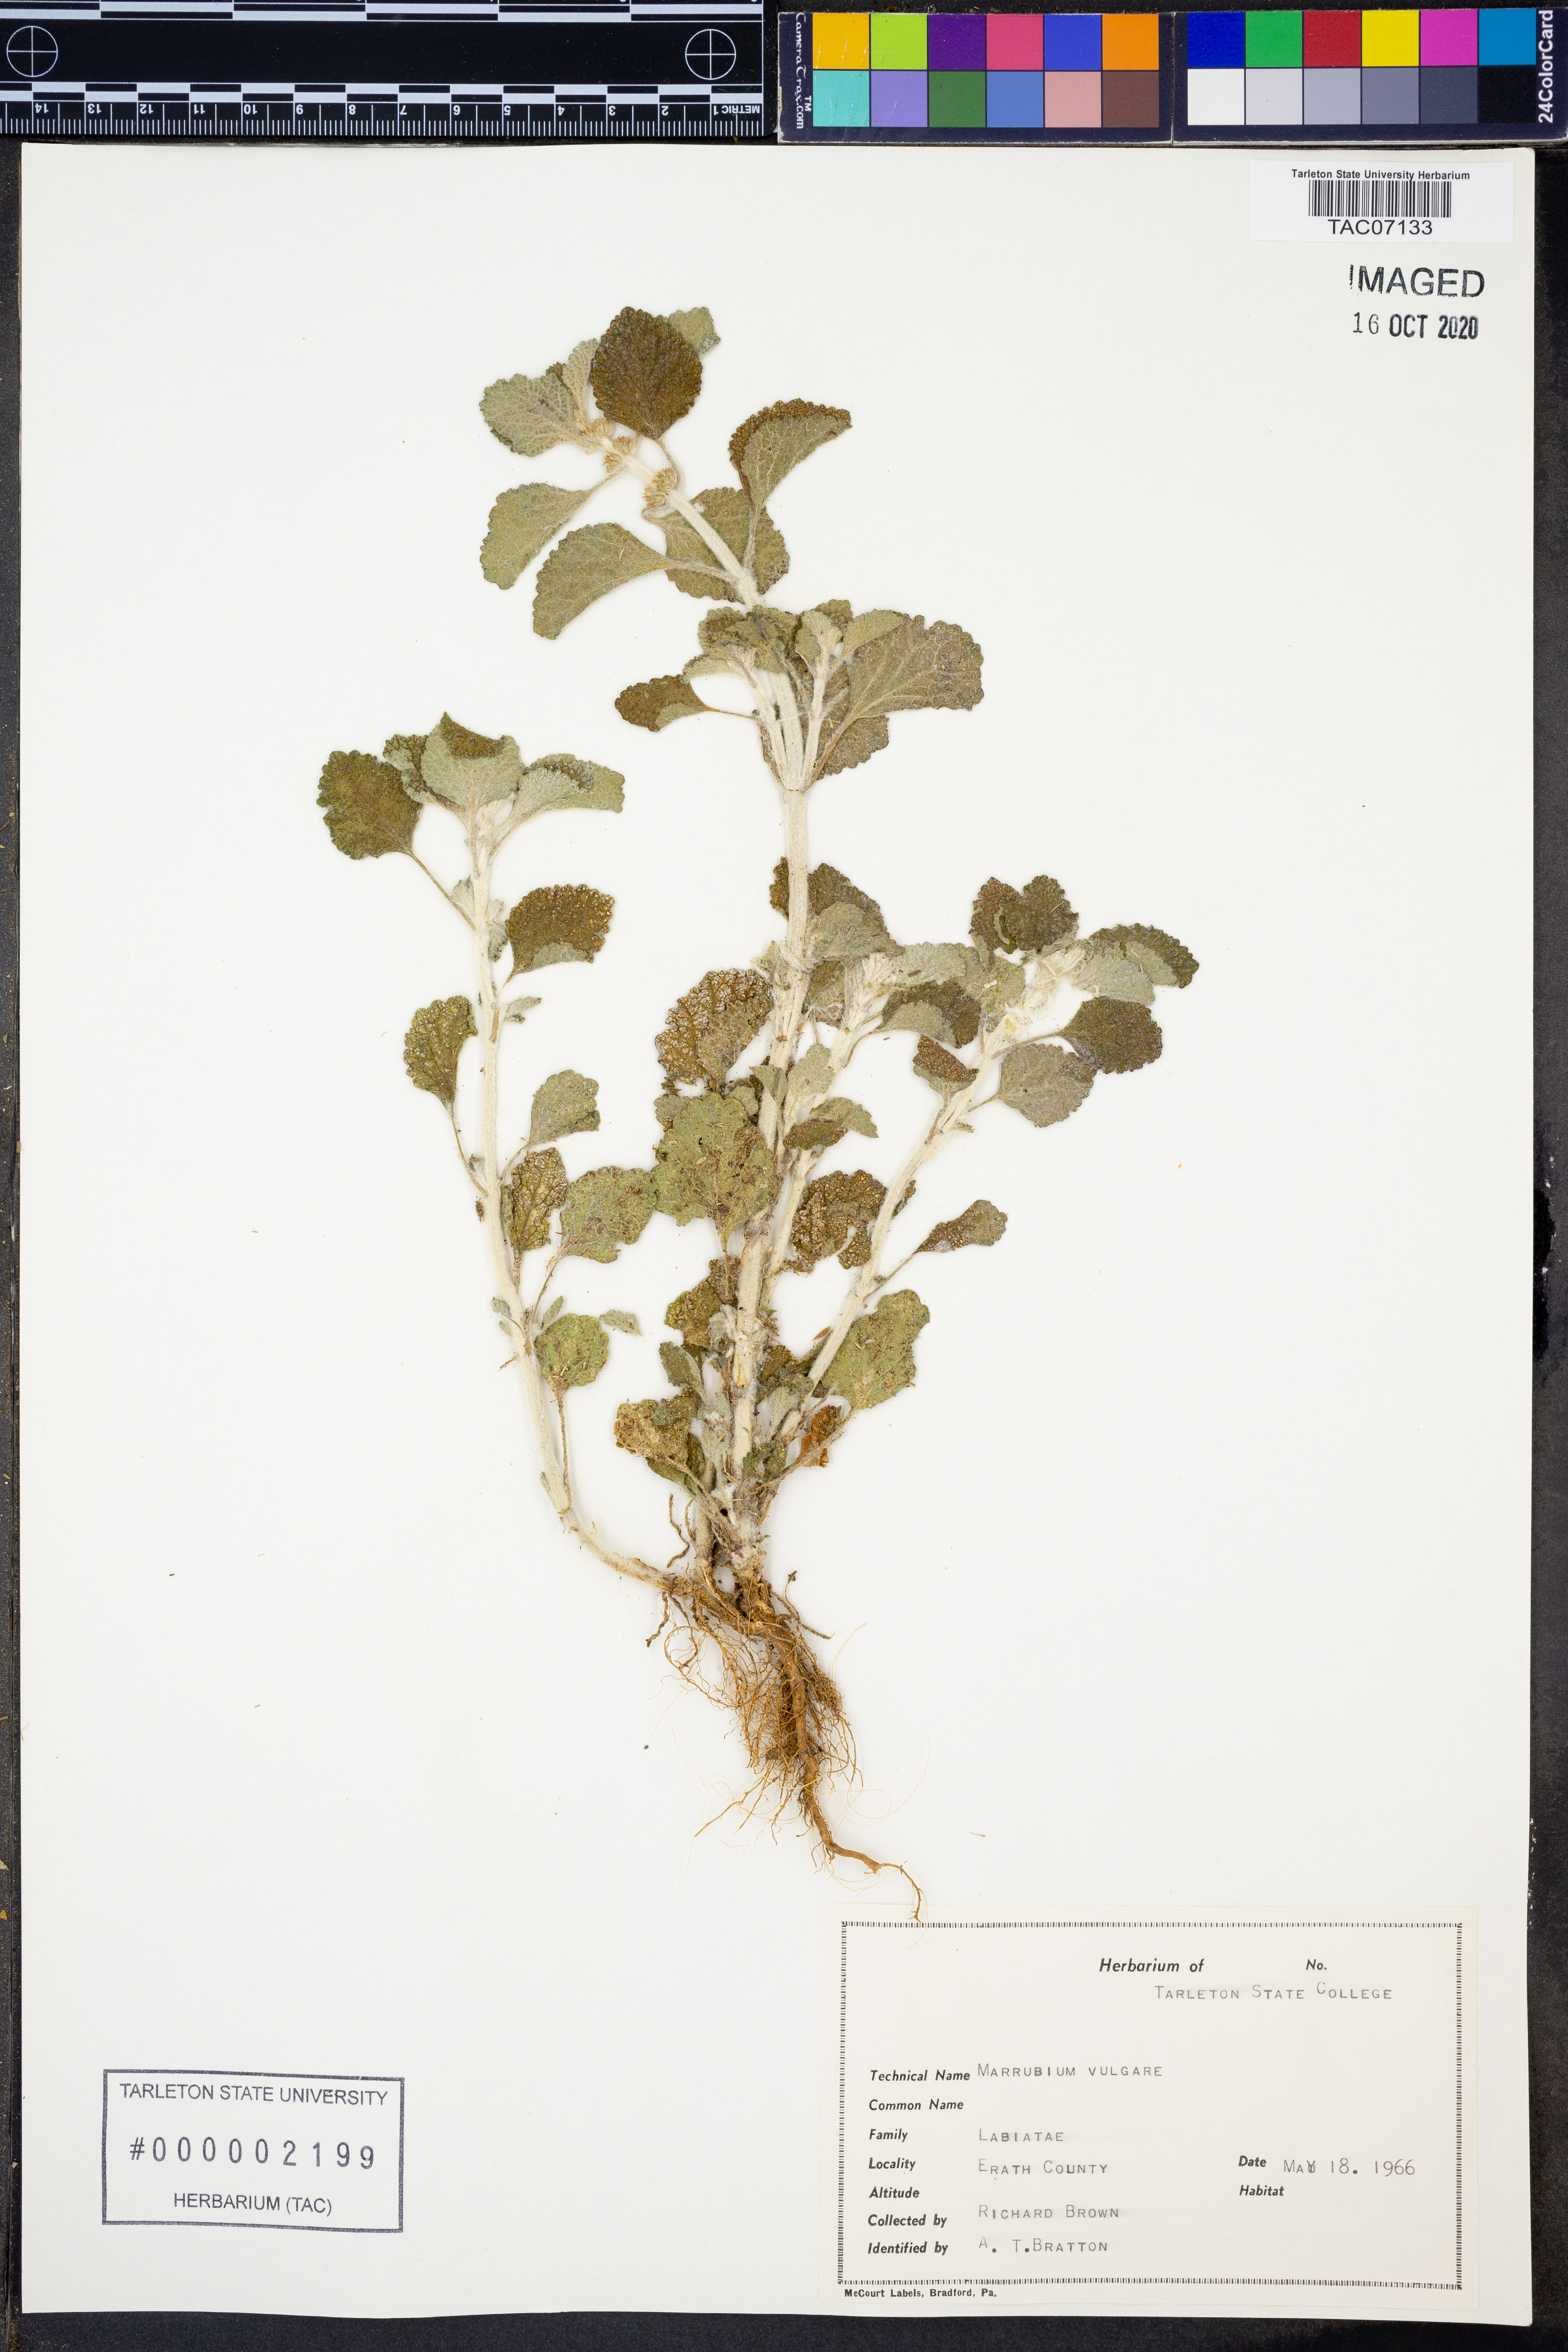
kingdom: Plantae
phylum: Tracheophyta
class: Magnoliopsida
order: Lamiales
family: Lamiaceae
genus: Marrubium
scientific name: Marrubium vulgare
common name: Horehound
